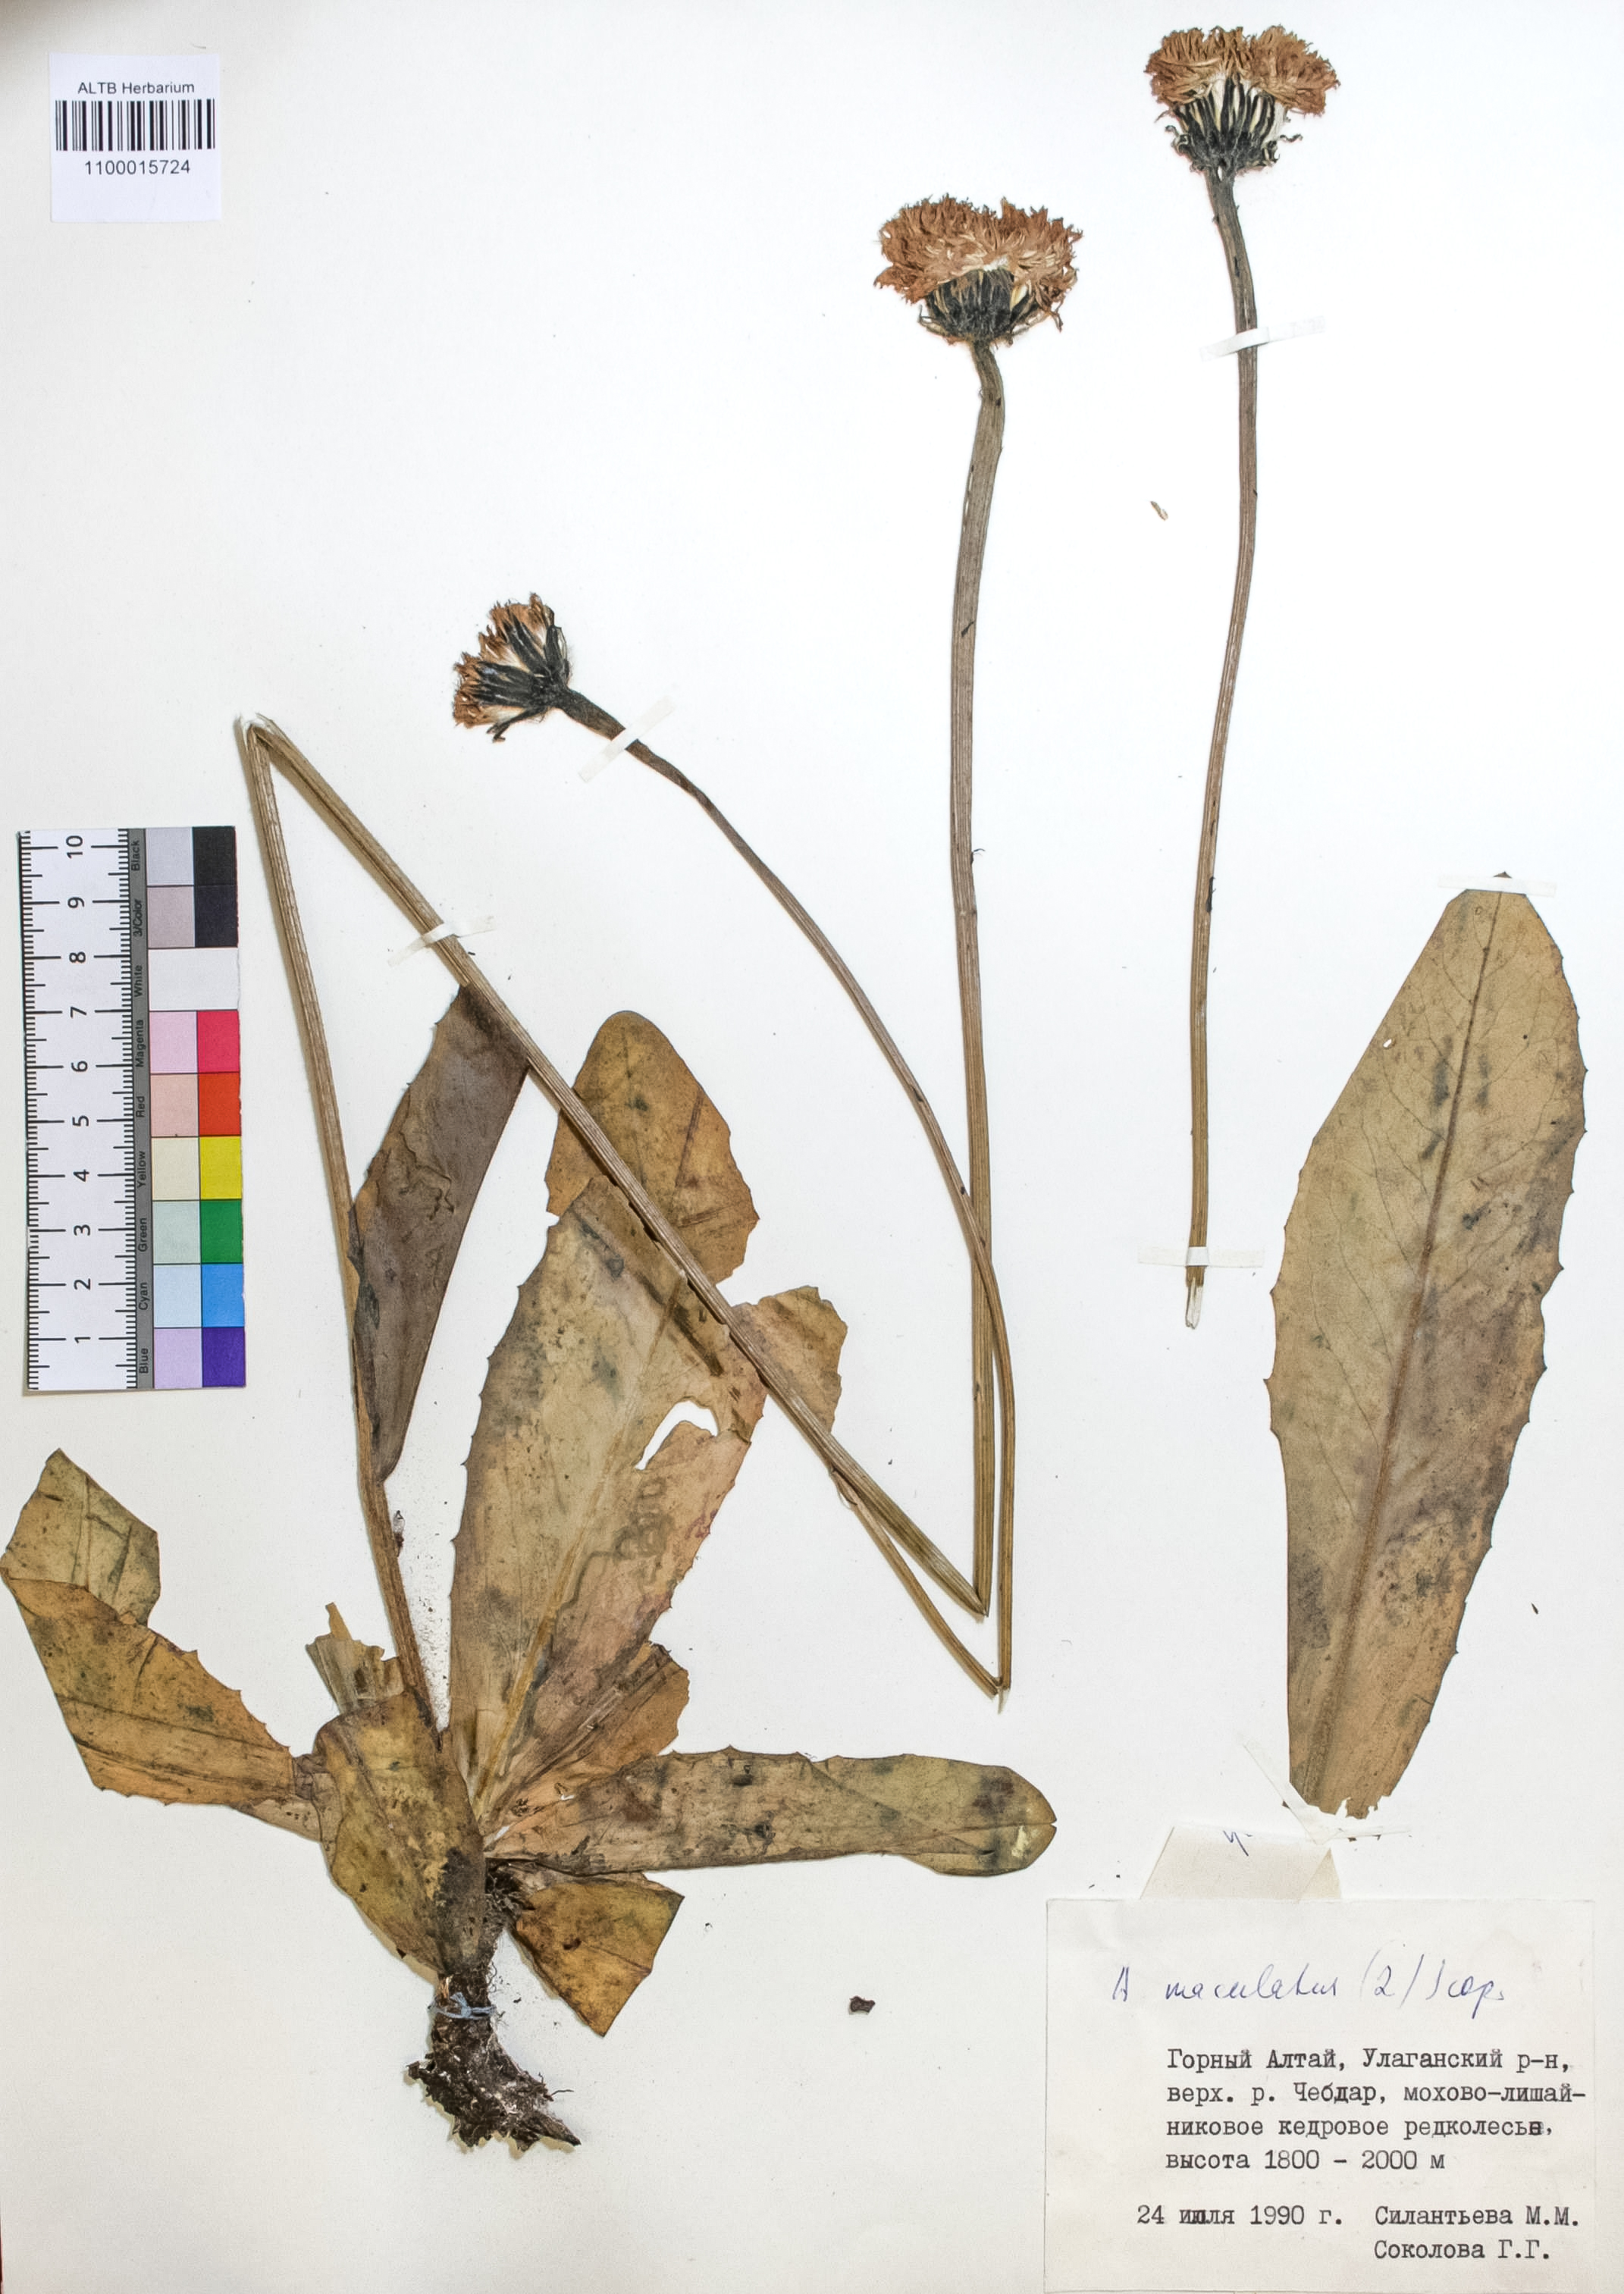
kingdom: Plantae
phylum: Tracheophyta
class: Magnoliopsida
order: Asterales
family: Asteraceae
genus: Trommsdorffia
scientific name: Trommsdorffia maculata
